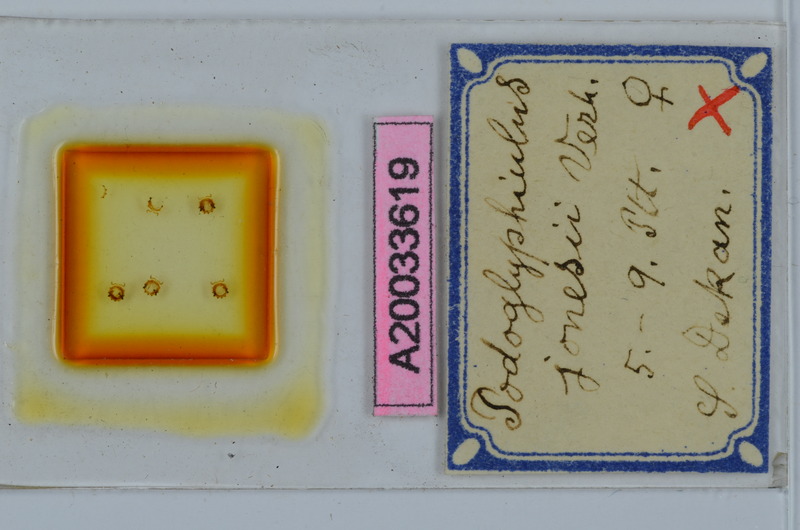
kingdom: Animalia
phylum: Arthropoda
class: Diplopoda
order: Spirostreptida
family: Cambalopsidae
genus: Podoglyphiulus
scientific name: Podoglyphiulus jonesii
